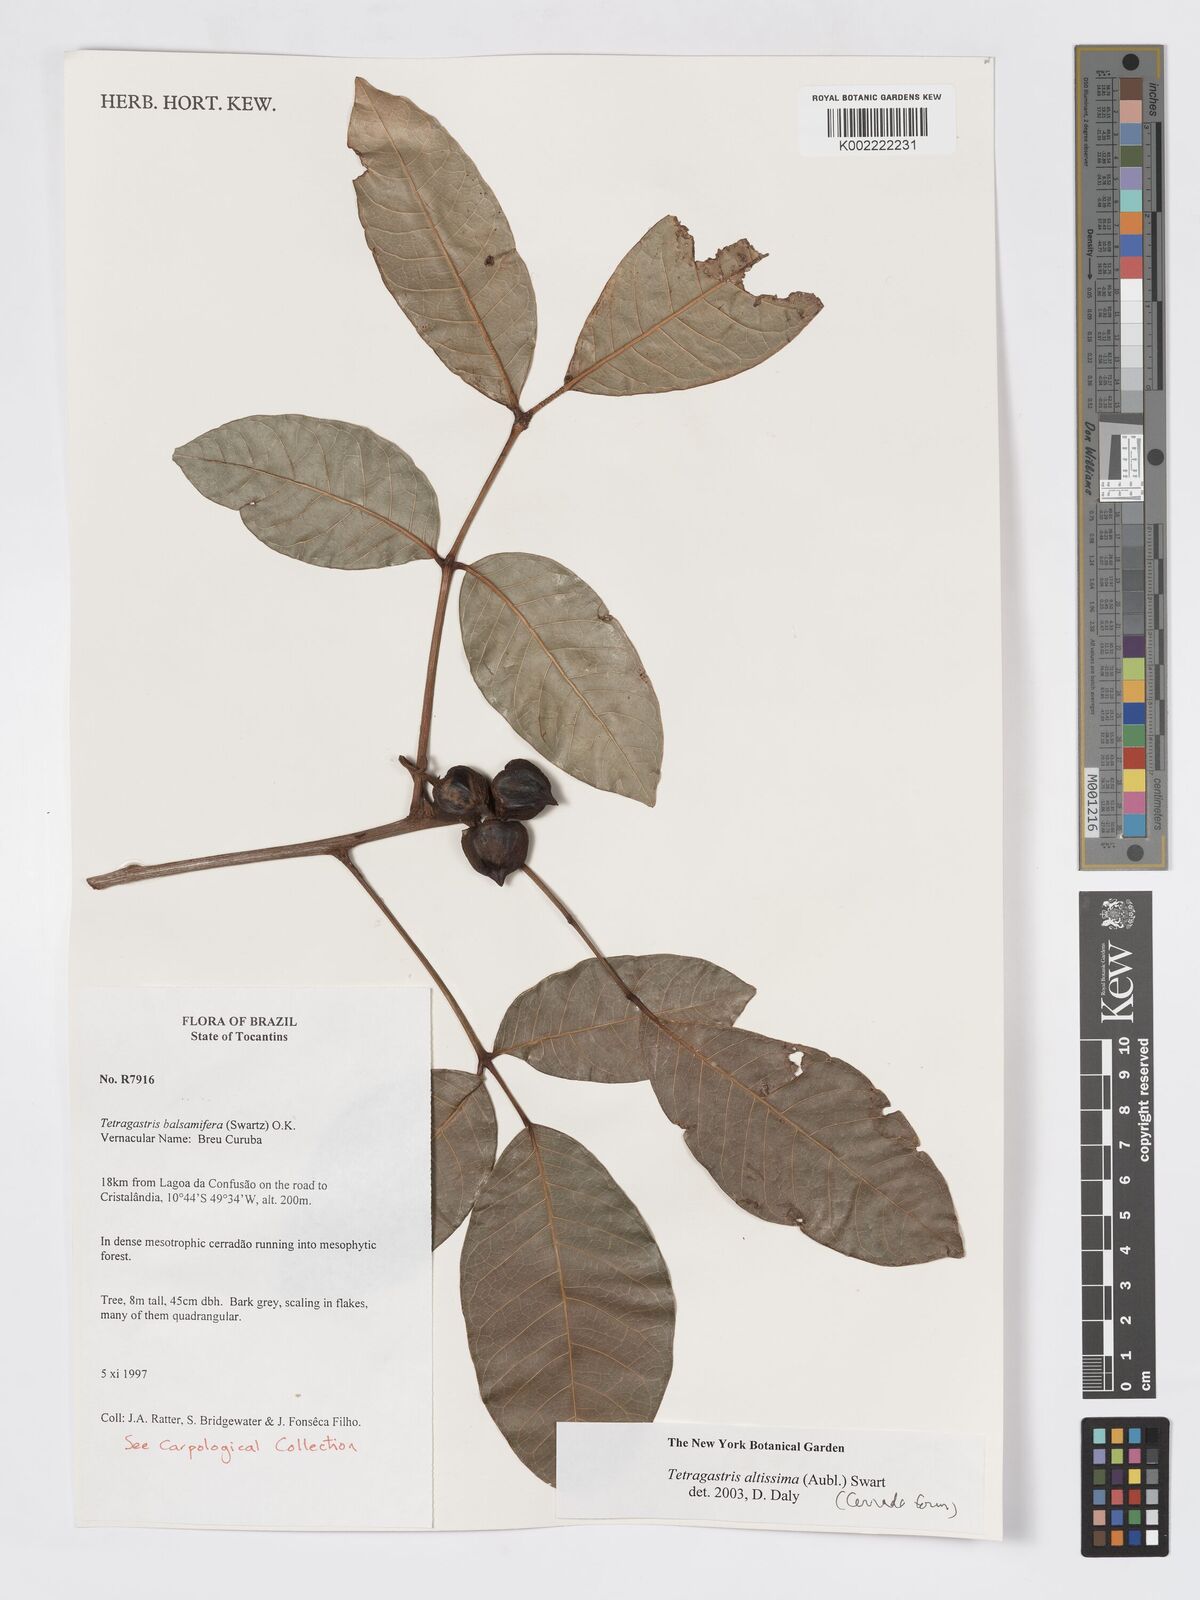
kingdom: Plantae
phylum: Tracheophyta
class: Magnoliopsida
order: Sapindales
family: Burseraceae
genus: Tetragastris
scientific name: Tetragastris altissima
